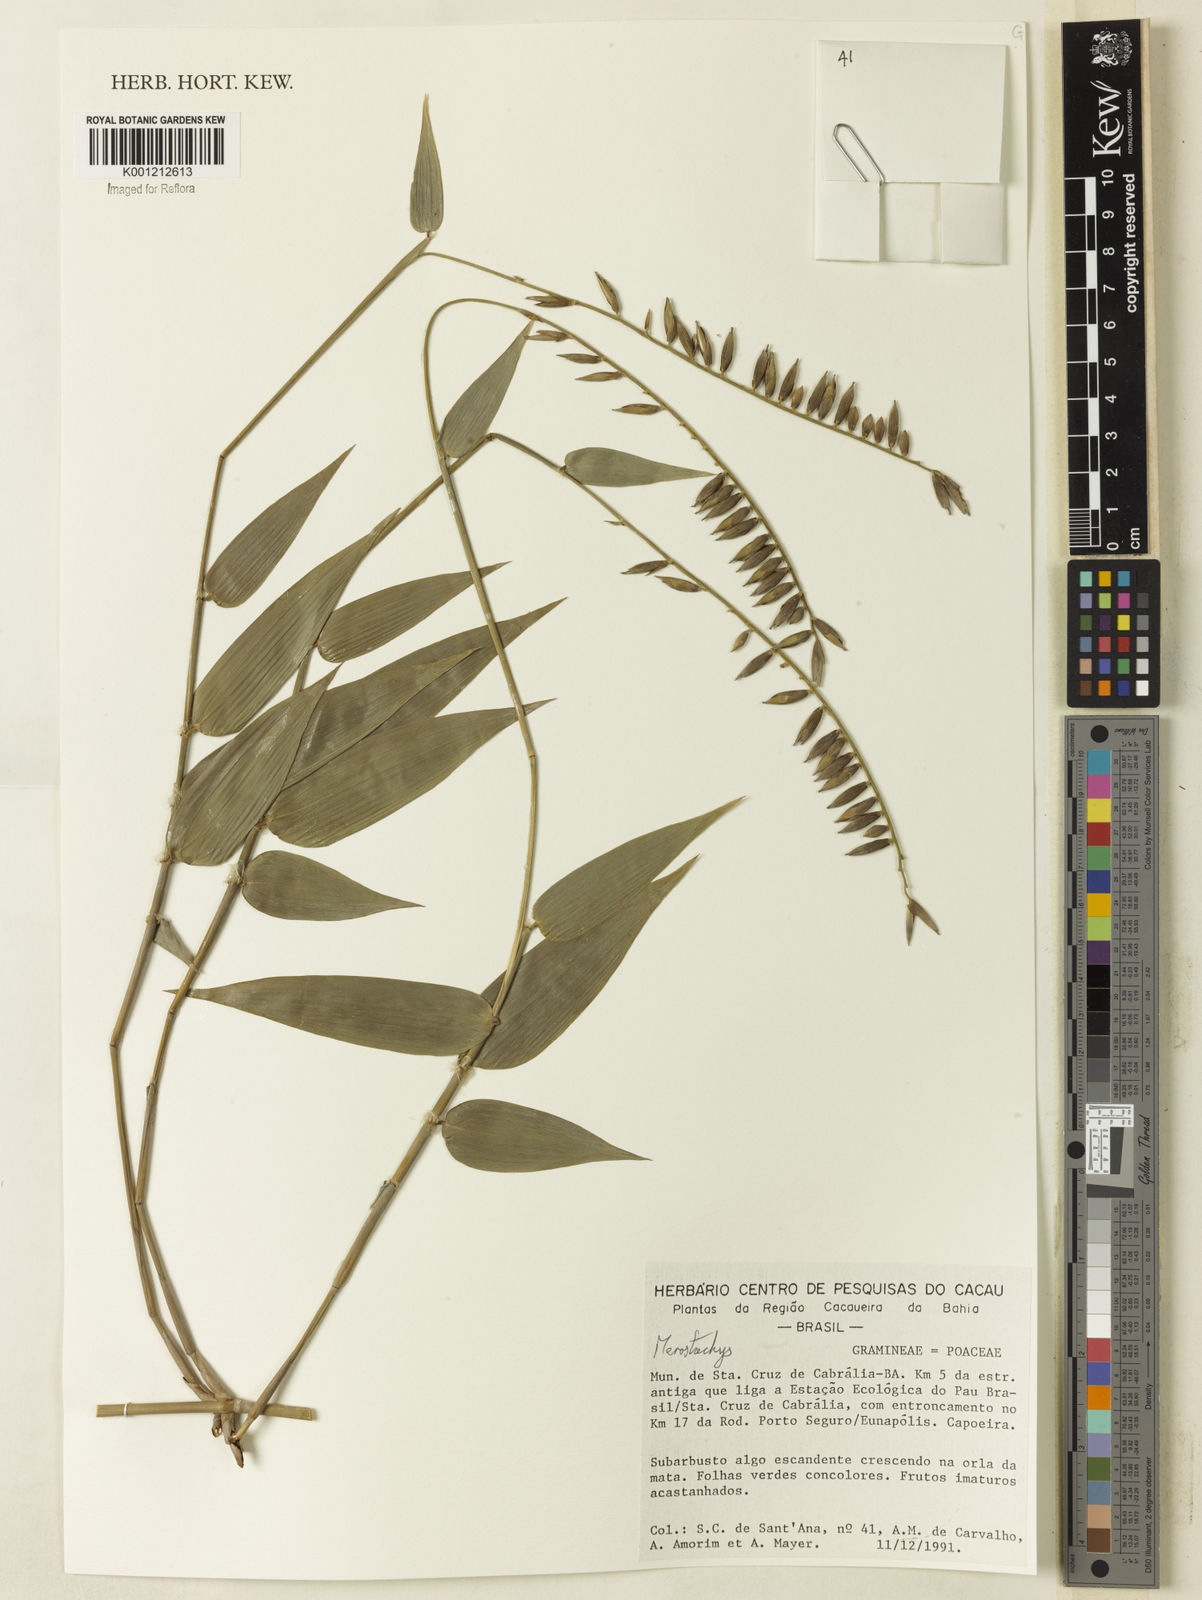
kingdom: Plantae
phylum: Tracheophyta
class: Liliopsida
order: Poales
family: Poaceae
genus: Merostachys
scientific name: Merostachys
